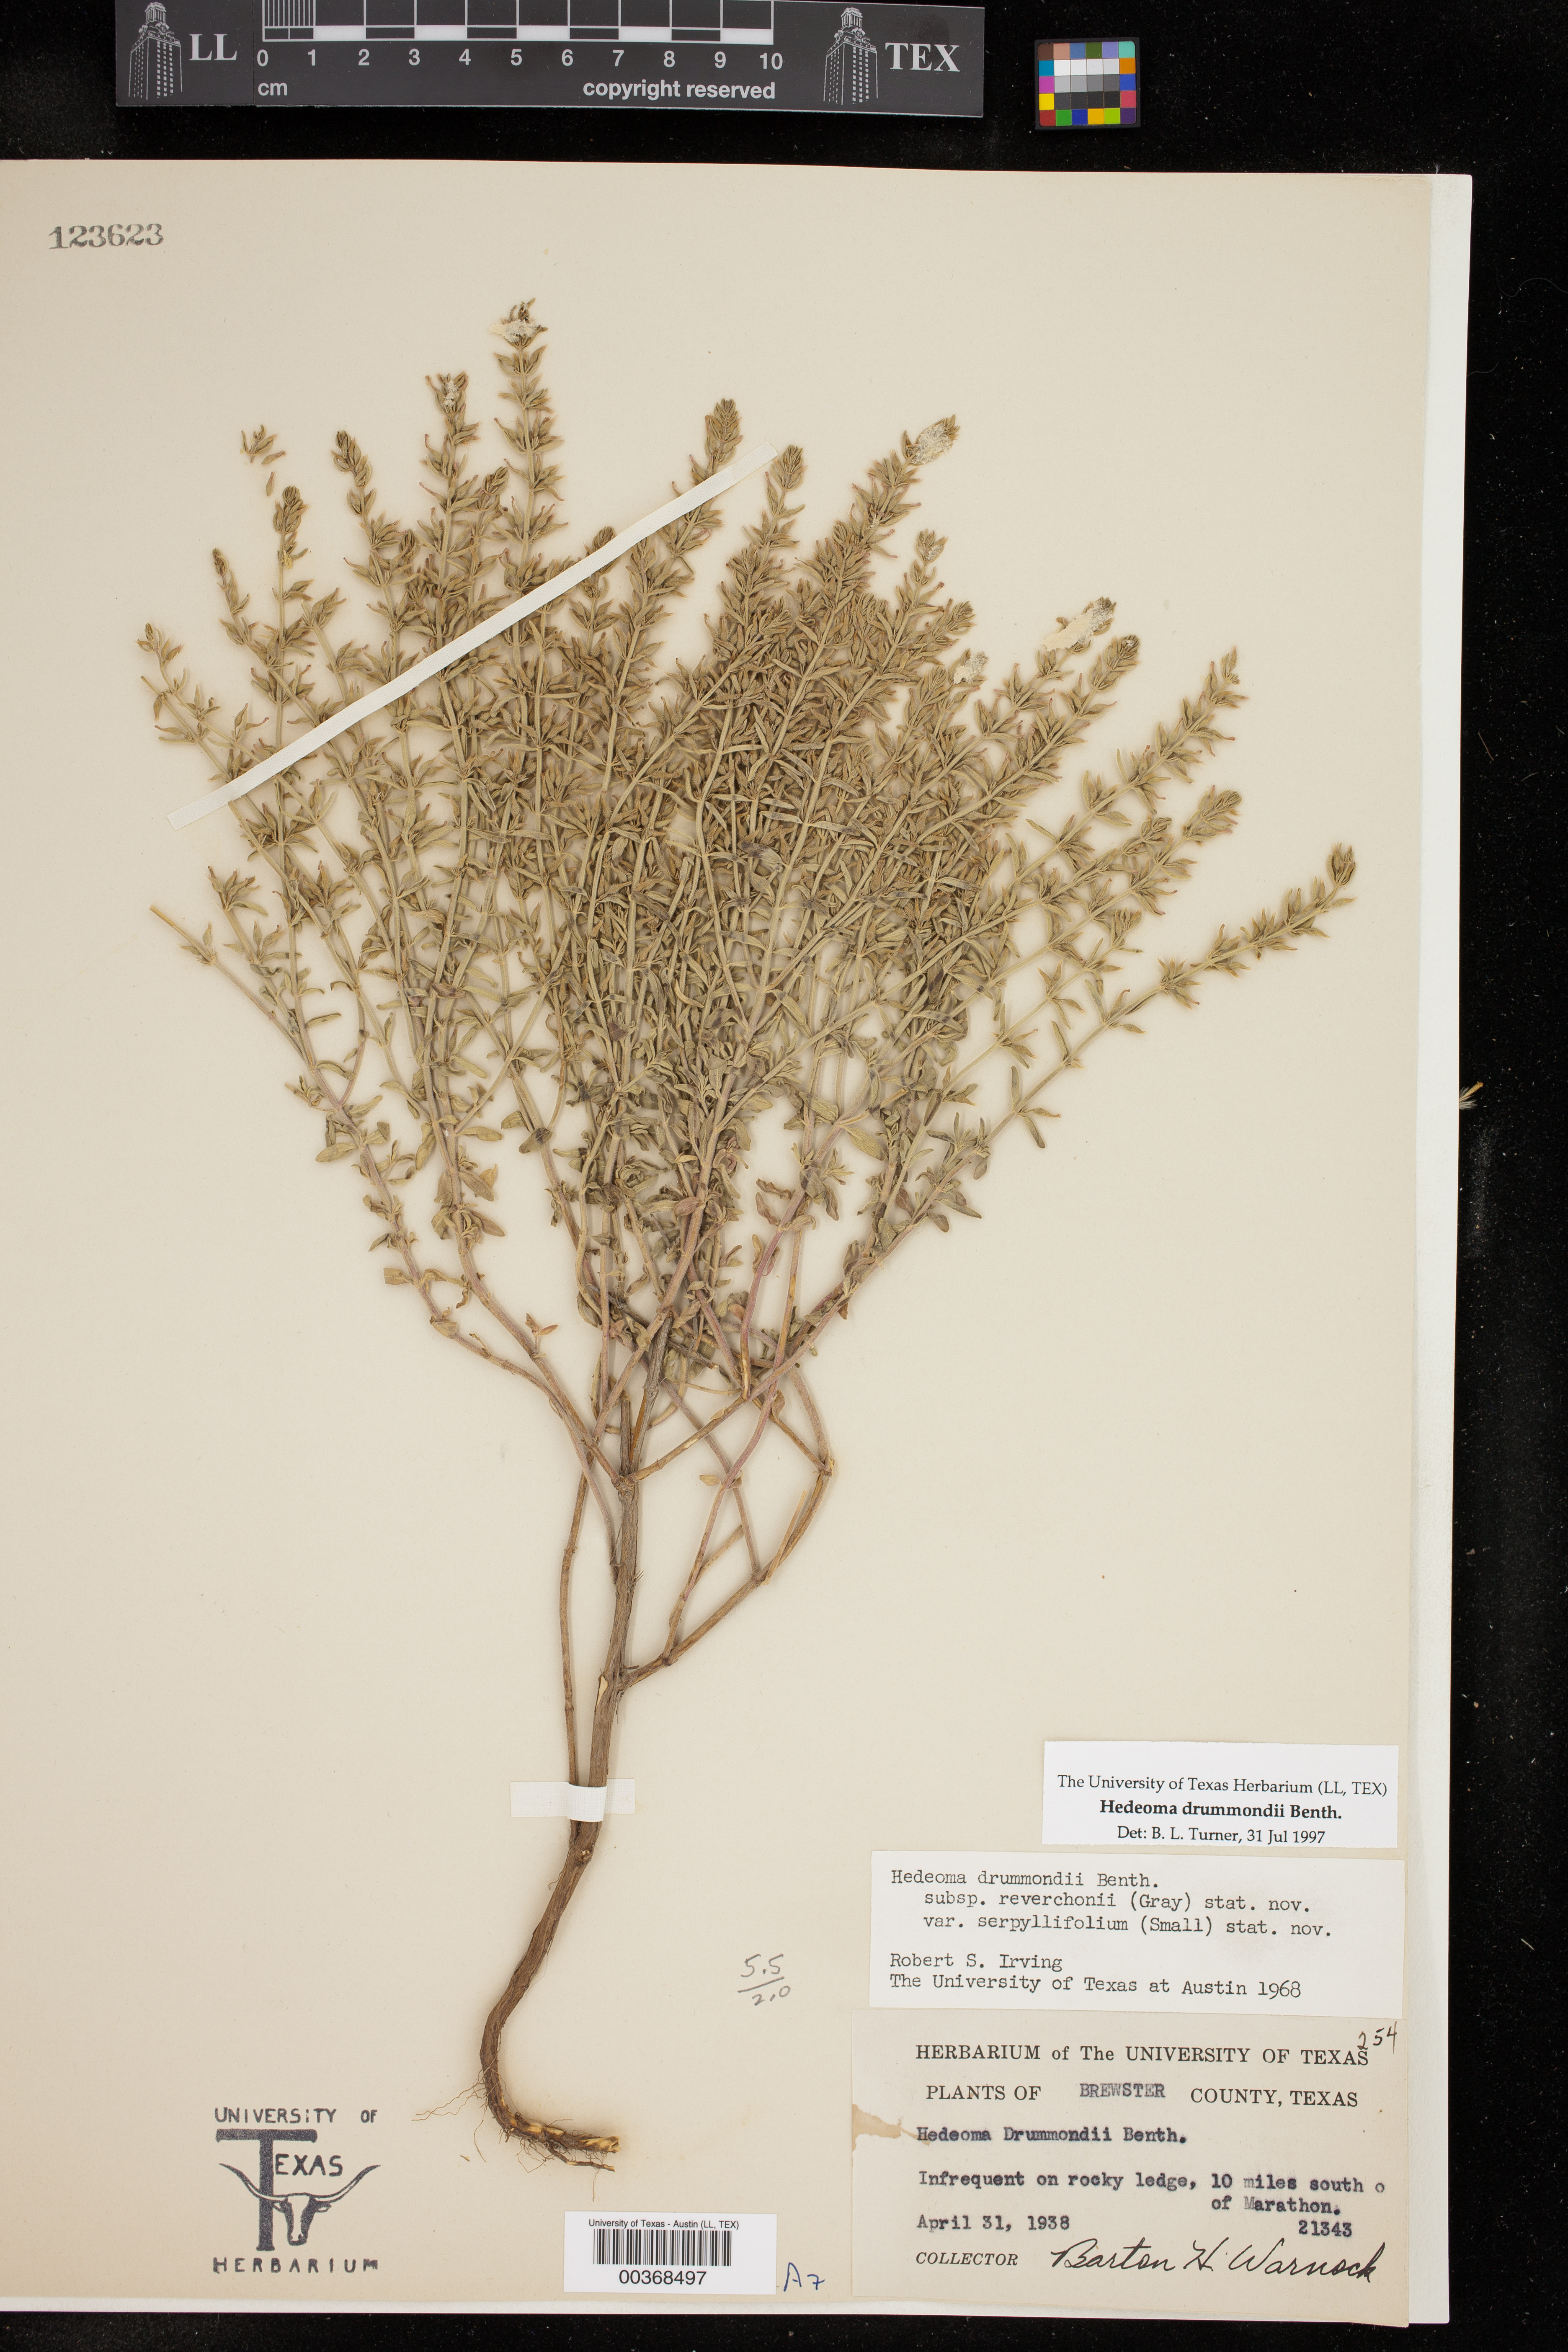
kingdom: Plantae
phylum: Tracheophyta
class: Magnoliopsida
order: Lamiales
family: Lamiaceae
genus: Hedeoma
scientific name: Hedeoma drummondii
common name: New mexico pennyroyal
